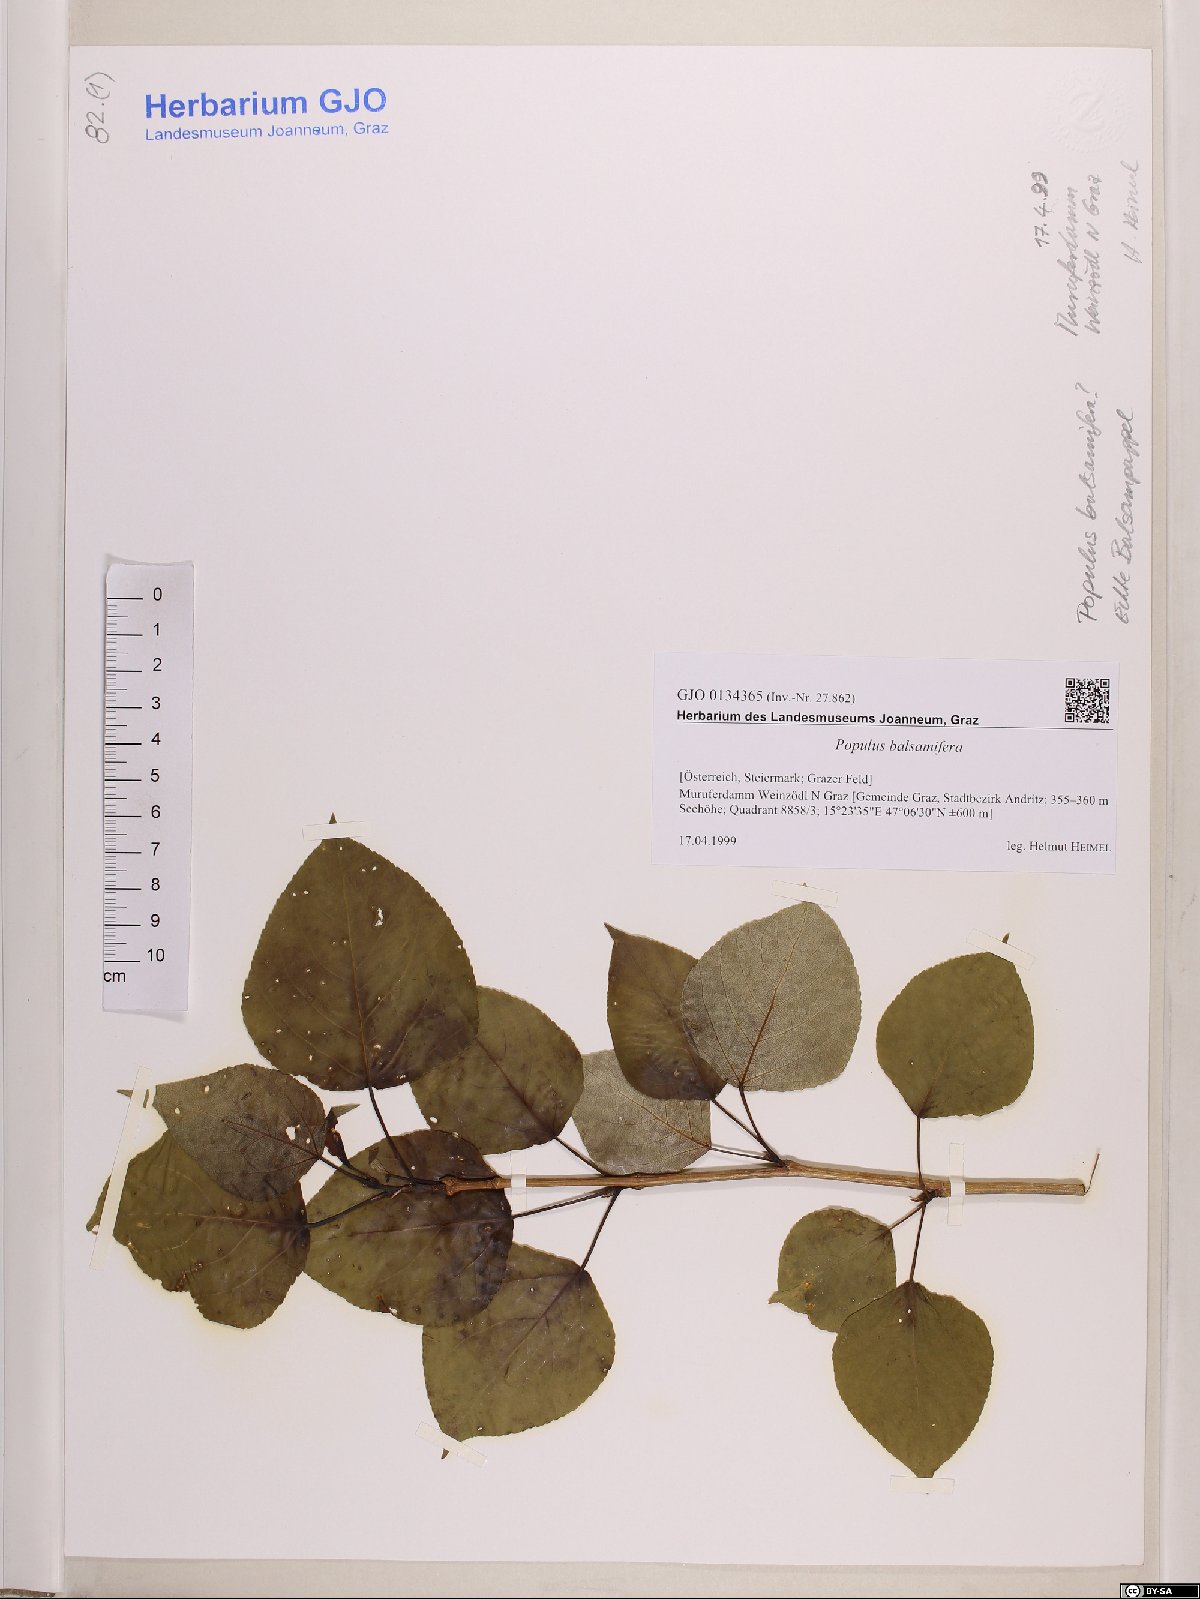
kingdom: Plantae
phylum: Tracheophyta
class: Magnoliopsida
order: Malpighiales
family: Salicaceae
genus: Populus
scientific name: Populus balsamifera
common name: Balsam poplar
